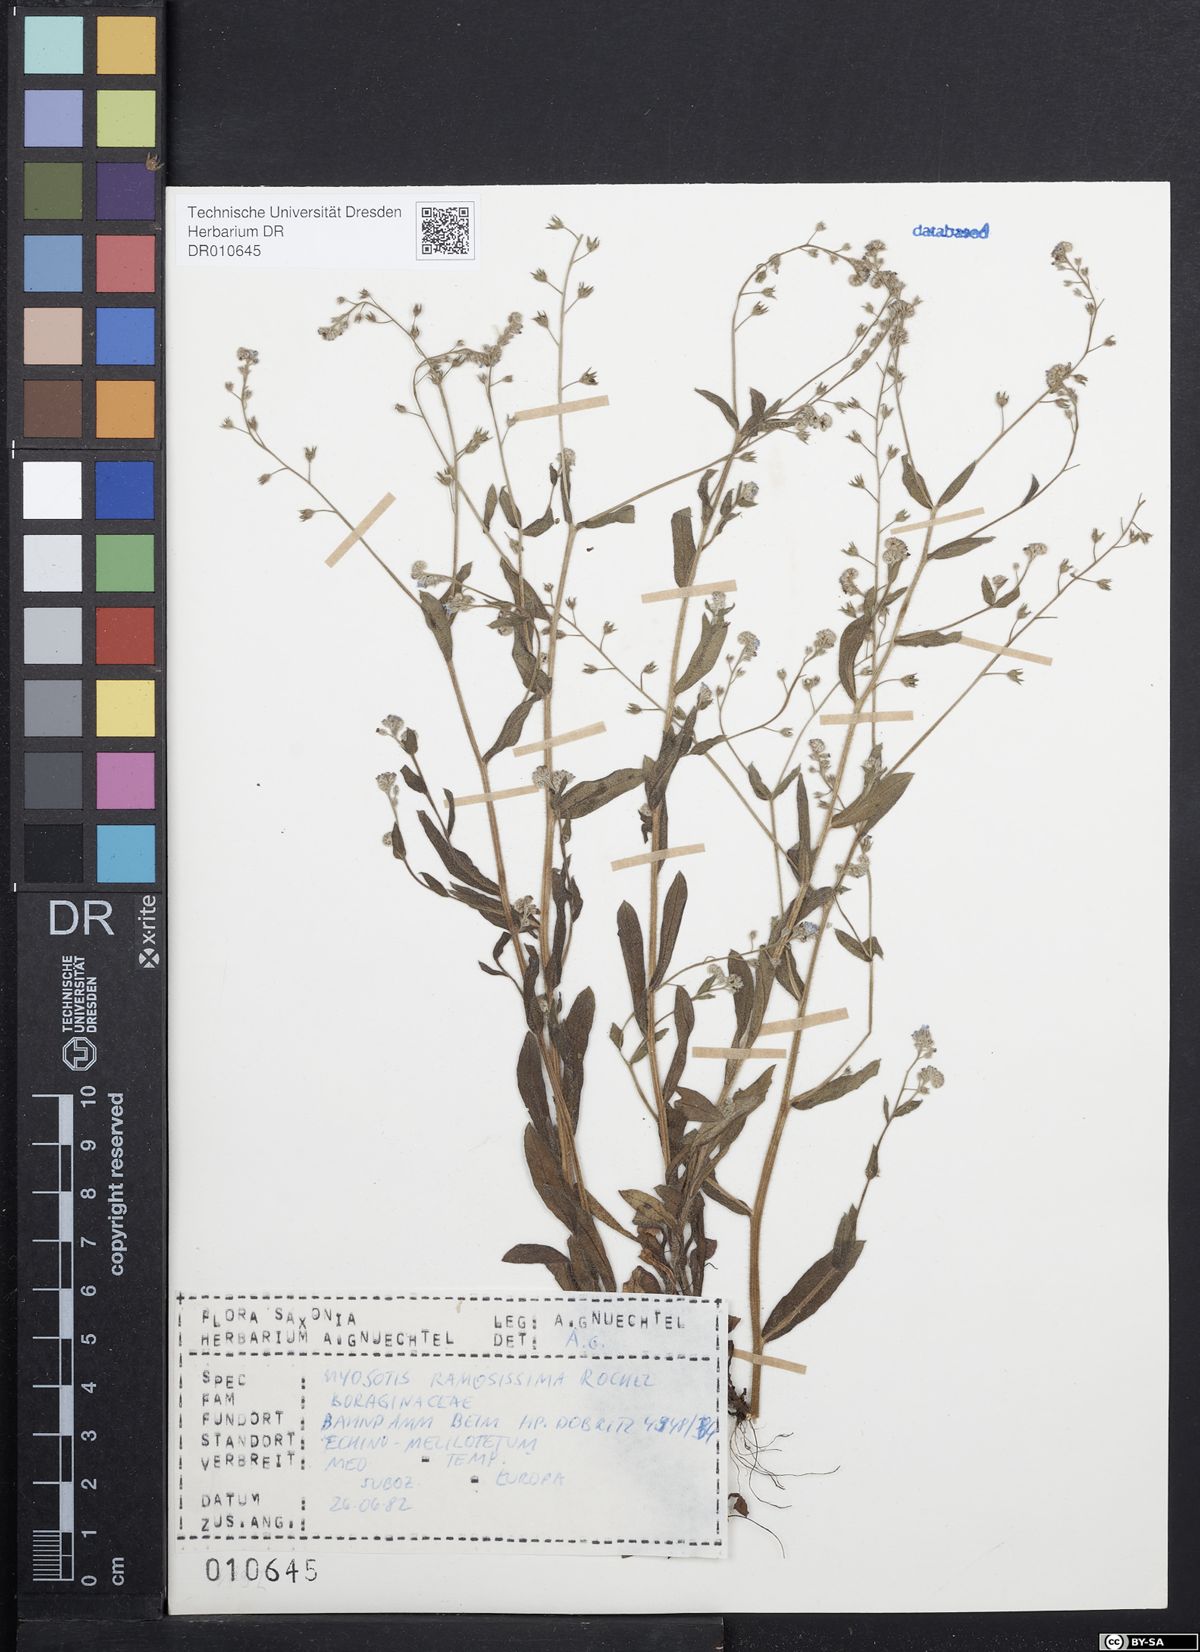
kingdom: Plantae
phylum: Tracheophyta
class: Magnoliopsida
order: Boraginales
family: Boraginaceae
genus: Myosotis
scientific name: Myosotis ramosissima
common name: Early forget-me-not
